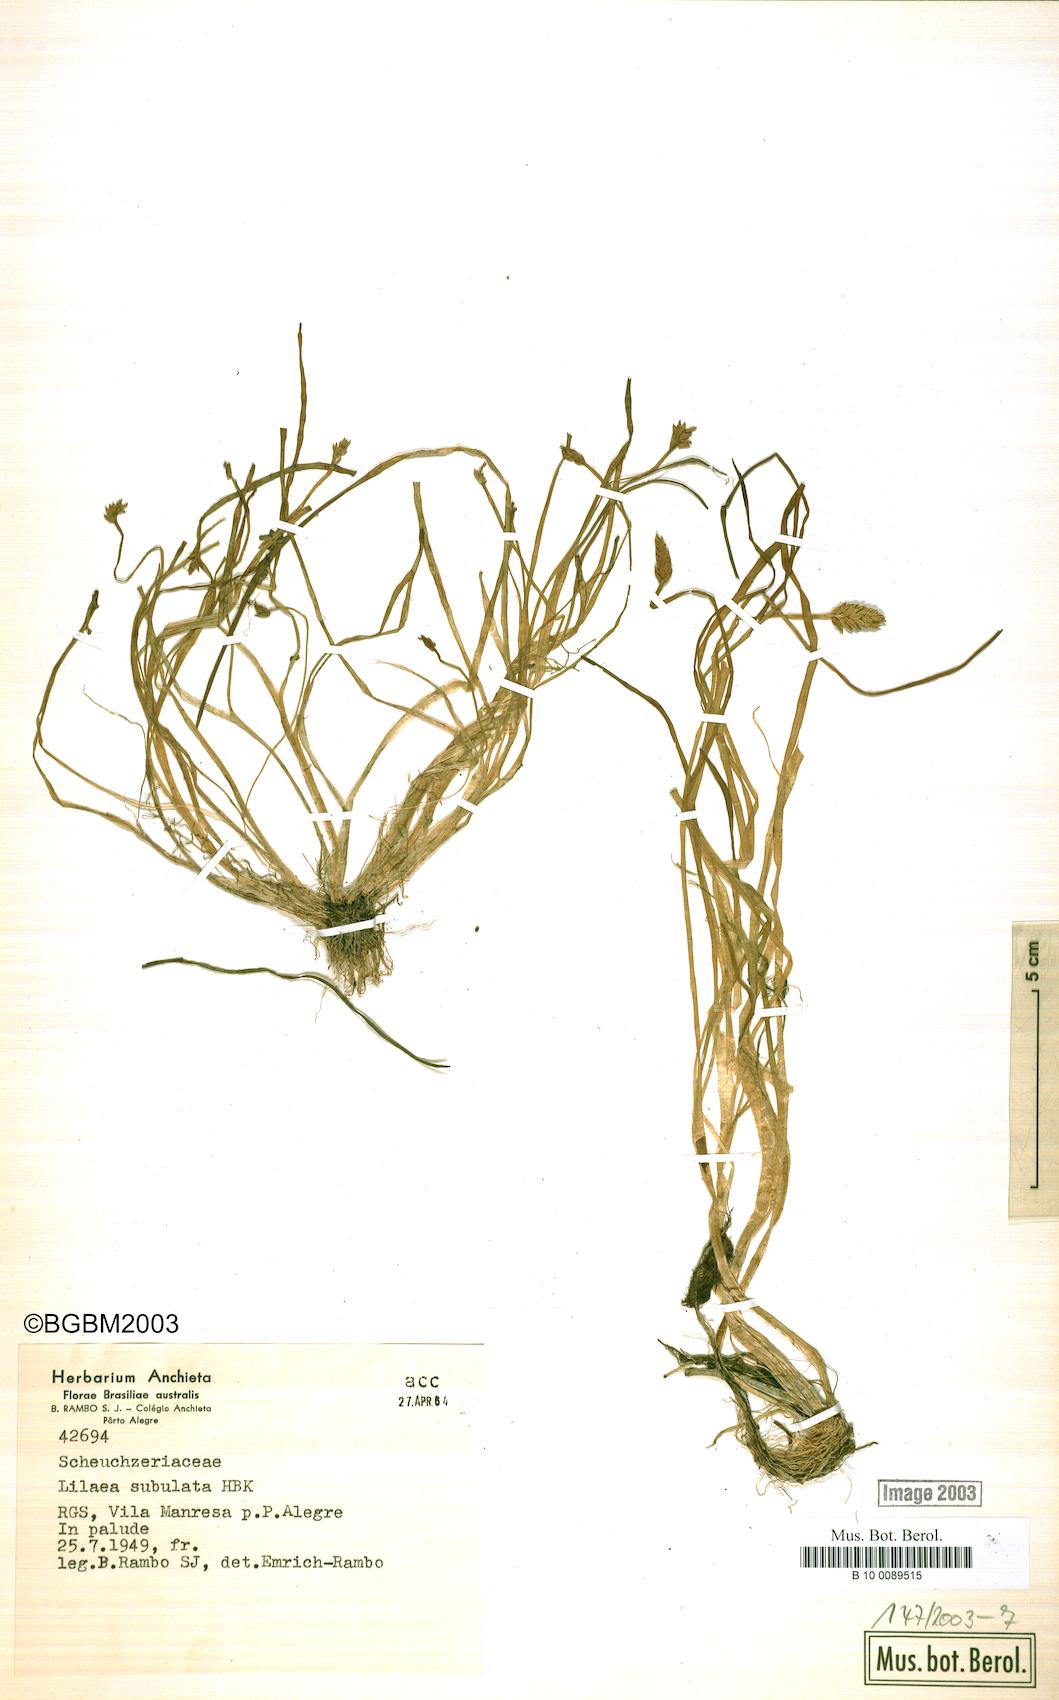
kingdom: Plantae
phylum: Tracheophyta
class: Liliopsida
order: Alismatales
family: Juncaginaceae
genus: Triglochin
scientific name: Triglochin scilloides
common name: Awl-leaved lilaea
